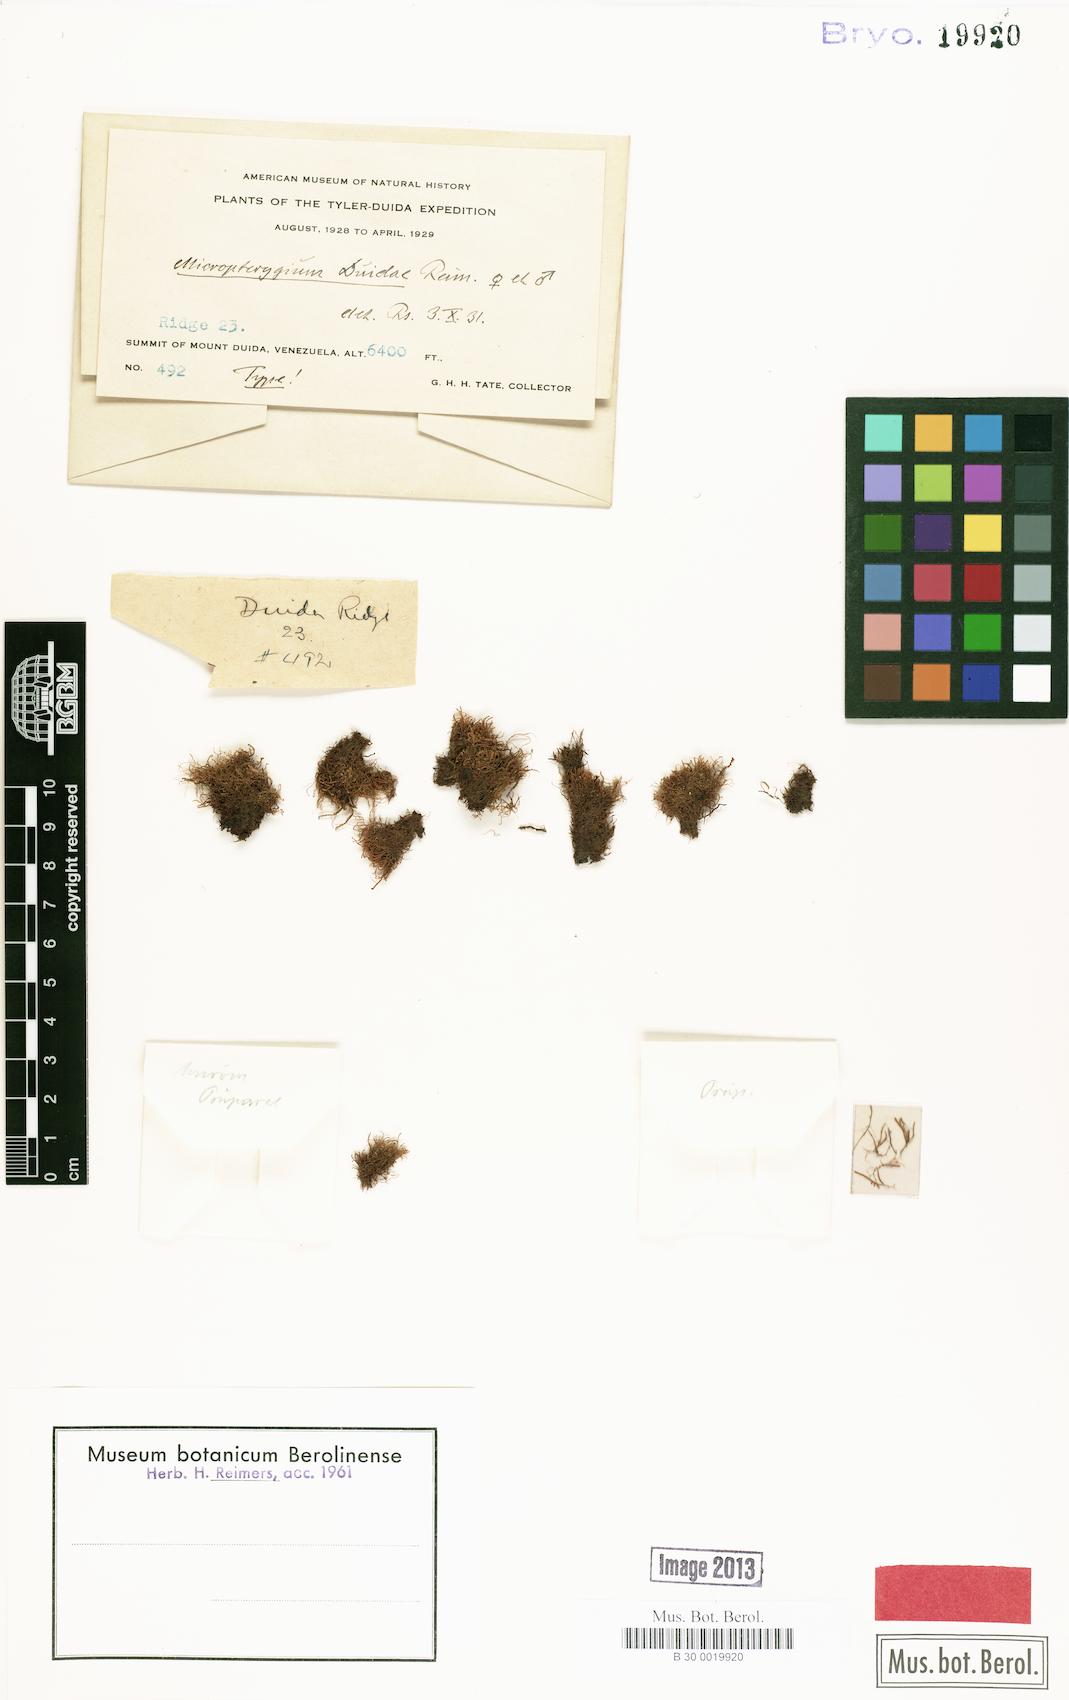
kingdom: Plantae
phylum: Marchantiophyta
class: Jungermanniopsida
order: Jungermanniales
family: Lepidoziaceae
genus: Micropterygium
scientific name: Micropterygium duidae
